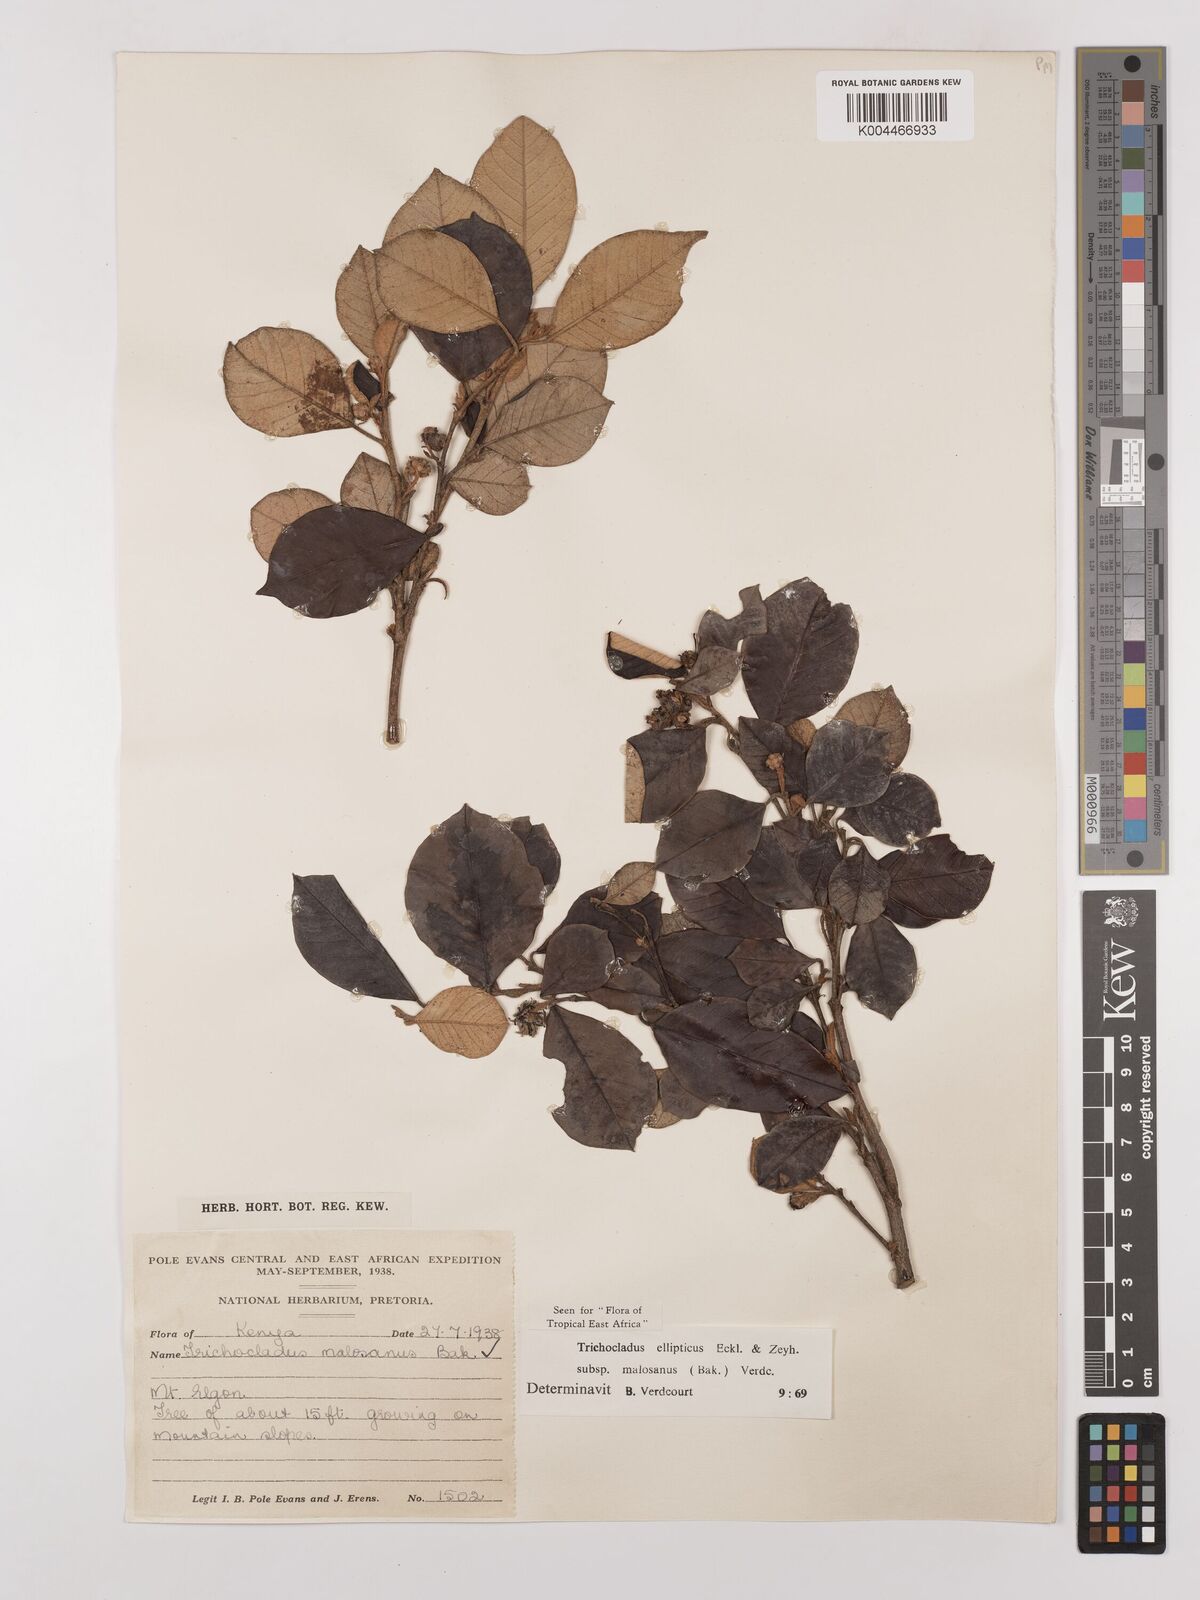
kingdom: Plantae
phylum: Tracheophyta
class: Magnoliopsida
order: Saxifragales
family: Hamamelidaceae
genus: Trichocladus
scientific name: Trichocladus ellipticus
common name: White witch-hazel
